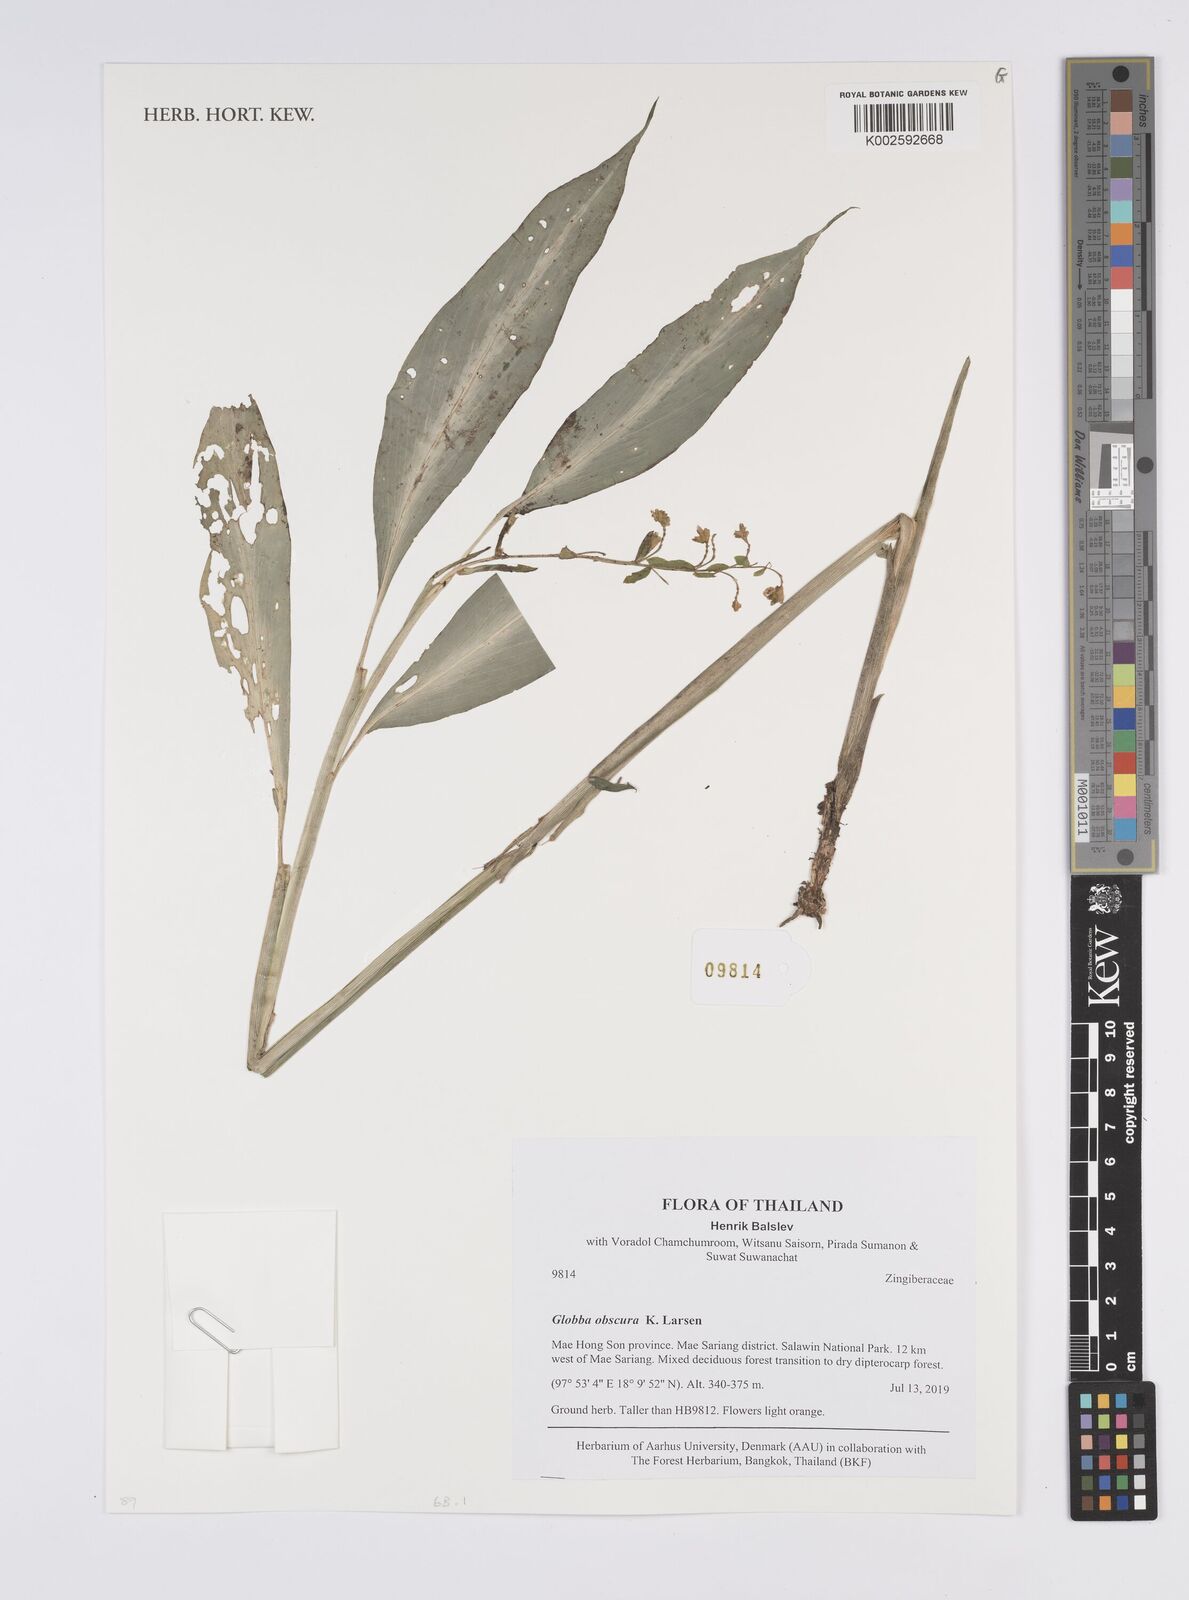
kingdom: Plantae
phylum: Tracheophyta
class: Liliopsida
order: Zingiberales
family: Zingiberaceae
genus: Globba
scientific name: Globba obscura
